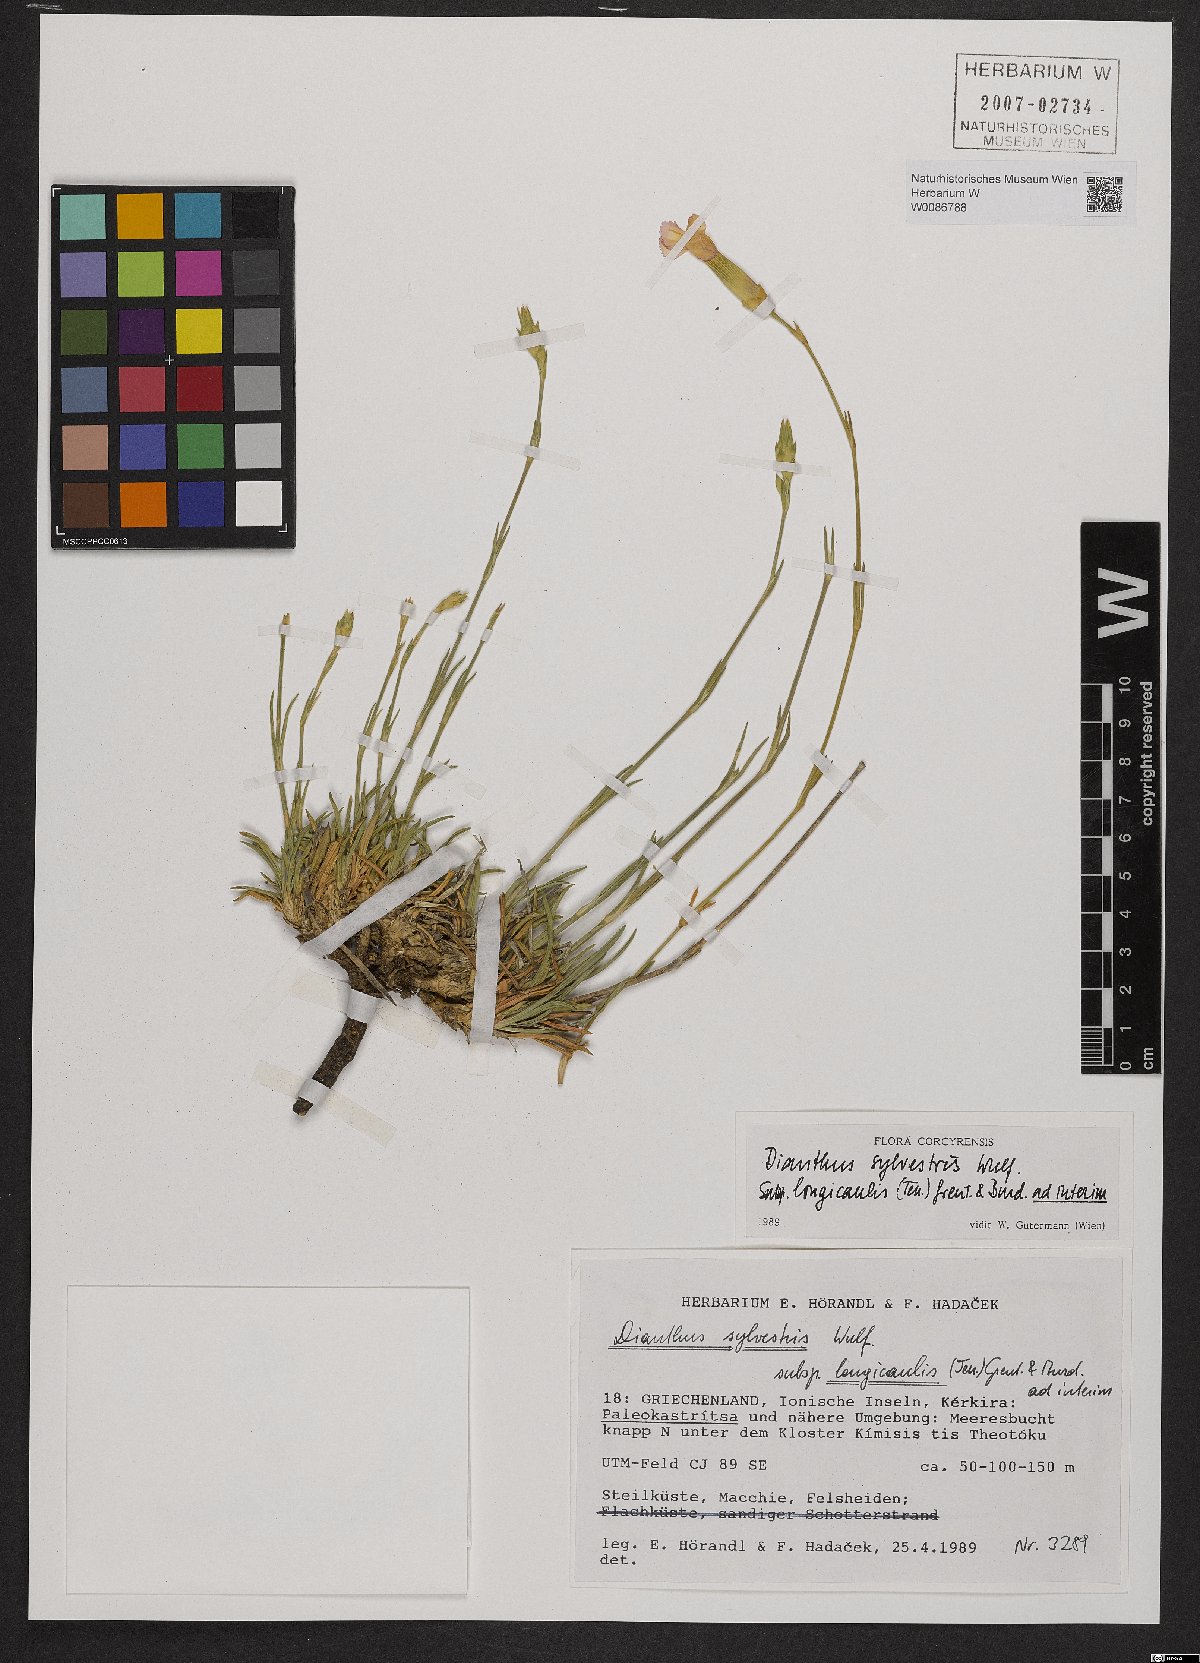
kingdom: Plantae
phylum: Tracheophyta
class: Magnoliopsida
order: Caryophyllales
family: Caryophyllaceae
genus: Dianthus
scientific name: Dianthus virgineus
